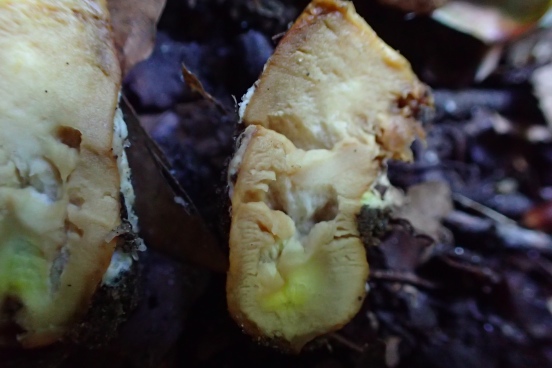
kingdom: Fungi
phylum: Basidiomycota
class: Agaricomycetes
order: Boletales
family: Gyroporaceae
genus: Gyroporus
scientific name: Gyroporus castaneus
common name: kastanie-kammerrørhat
